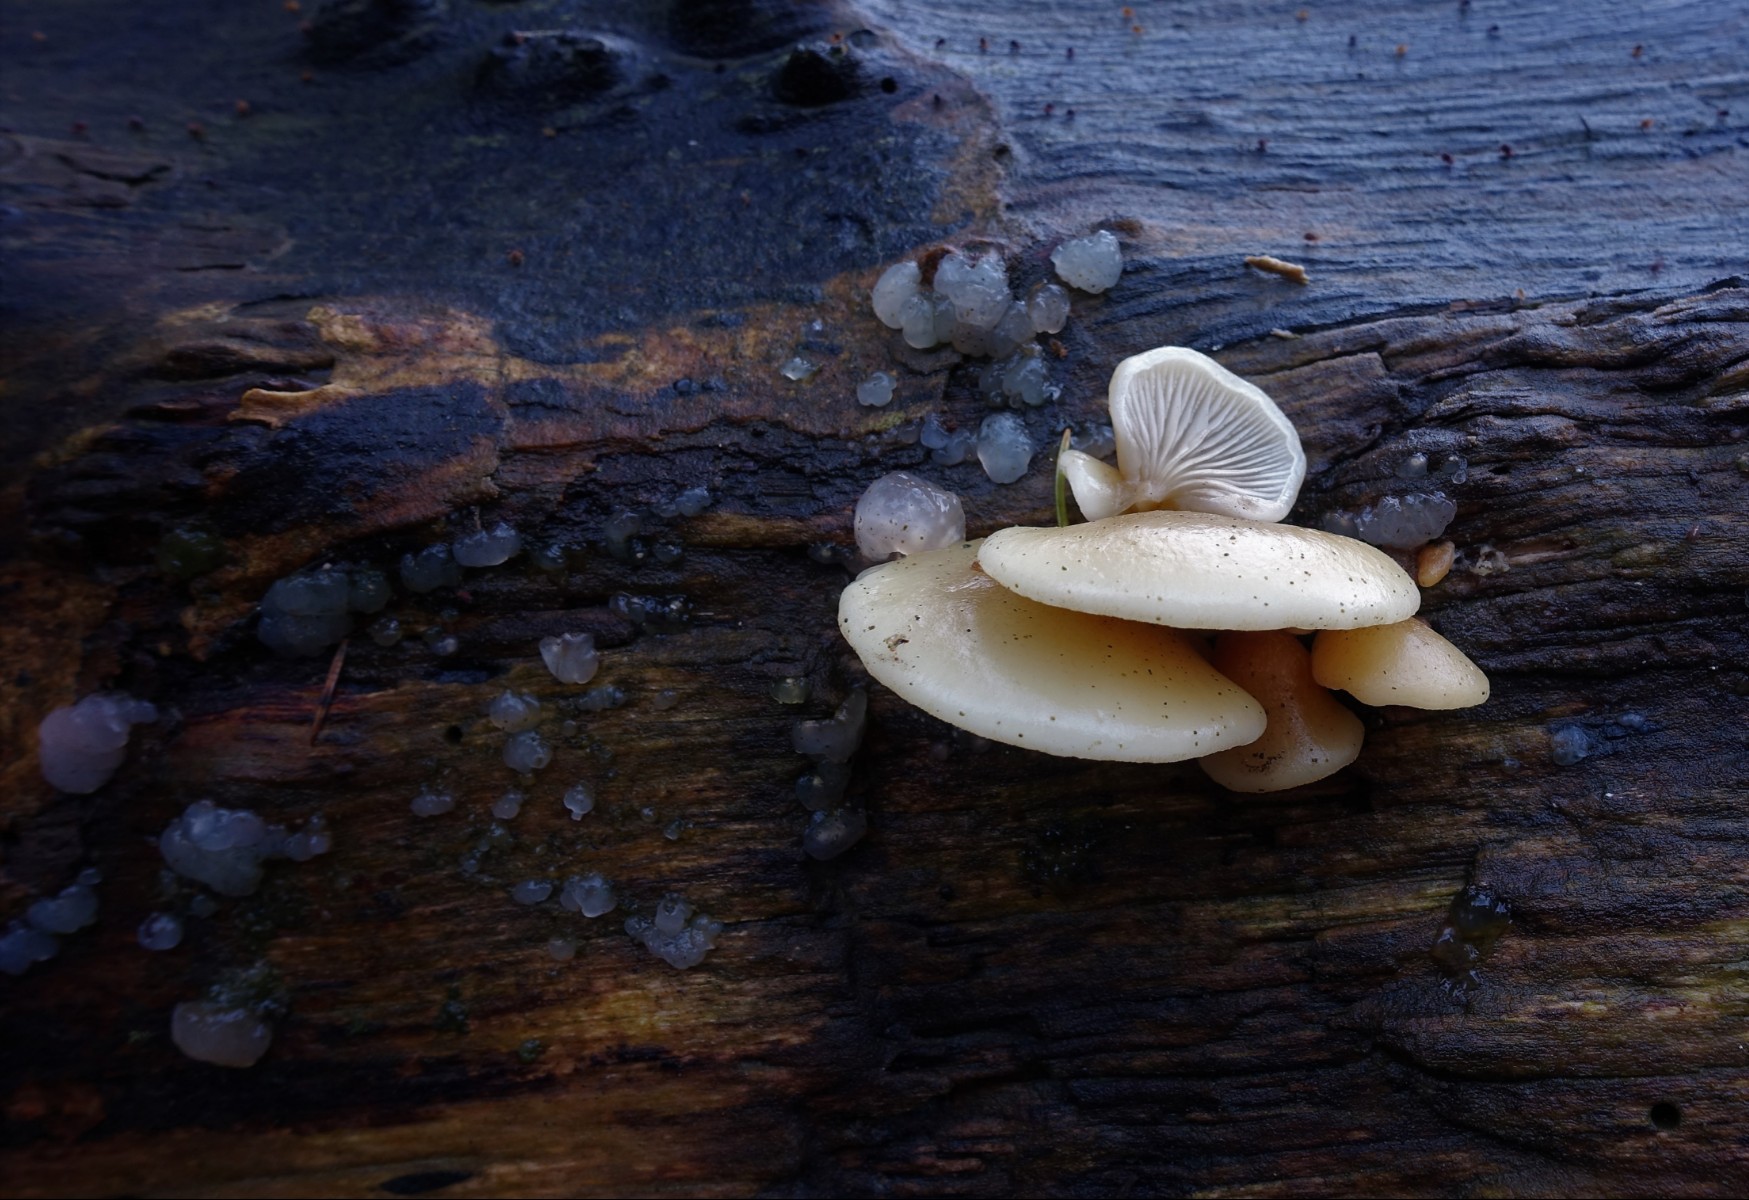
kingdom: Fungi
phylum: Basidiomycota
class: Agaricomycetes
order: Agaricales
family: Crepidotaceae
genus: Crepidotus
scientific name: Crepidotus mollis
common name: blød muslingesvamp
